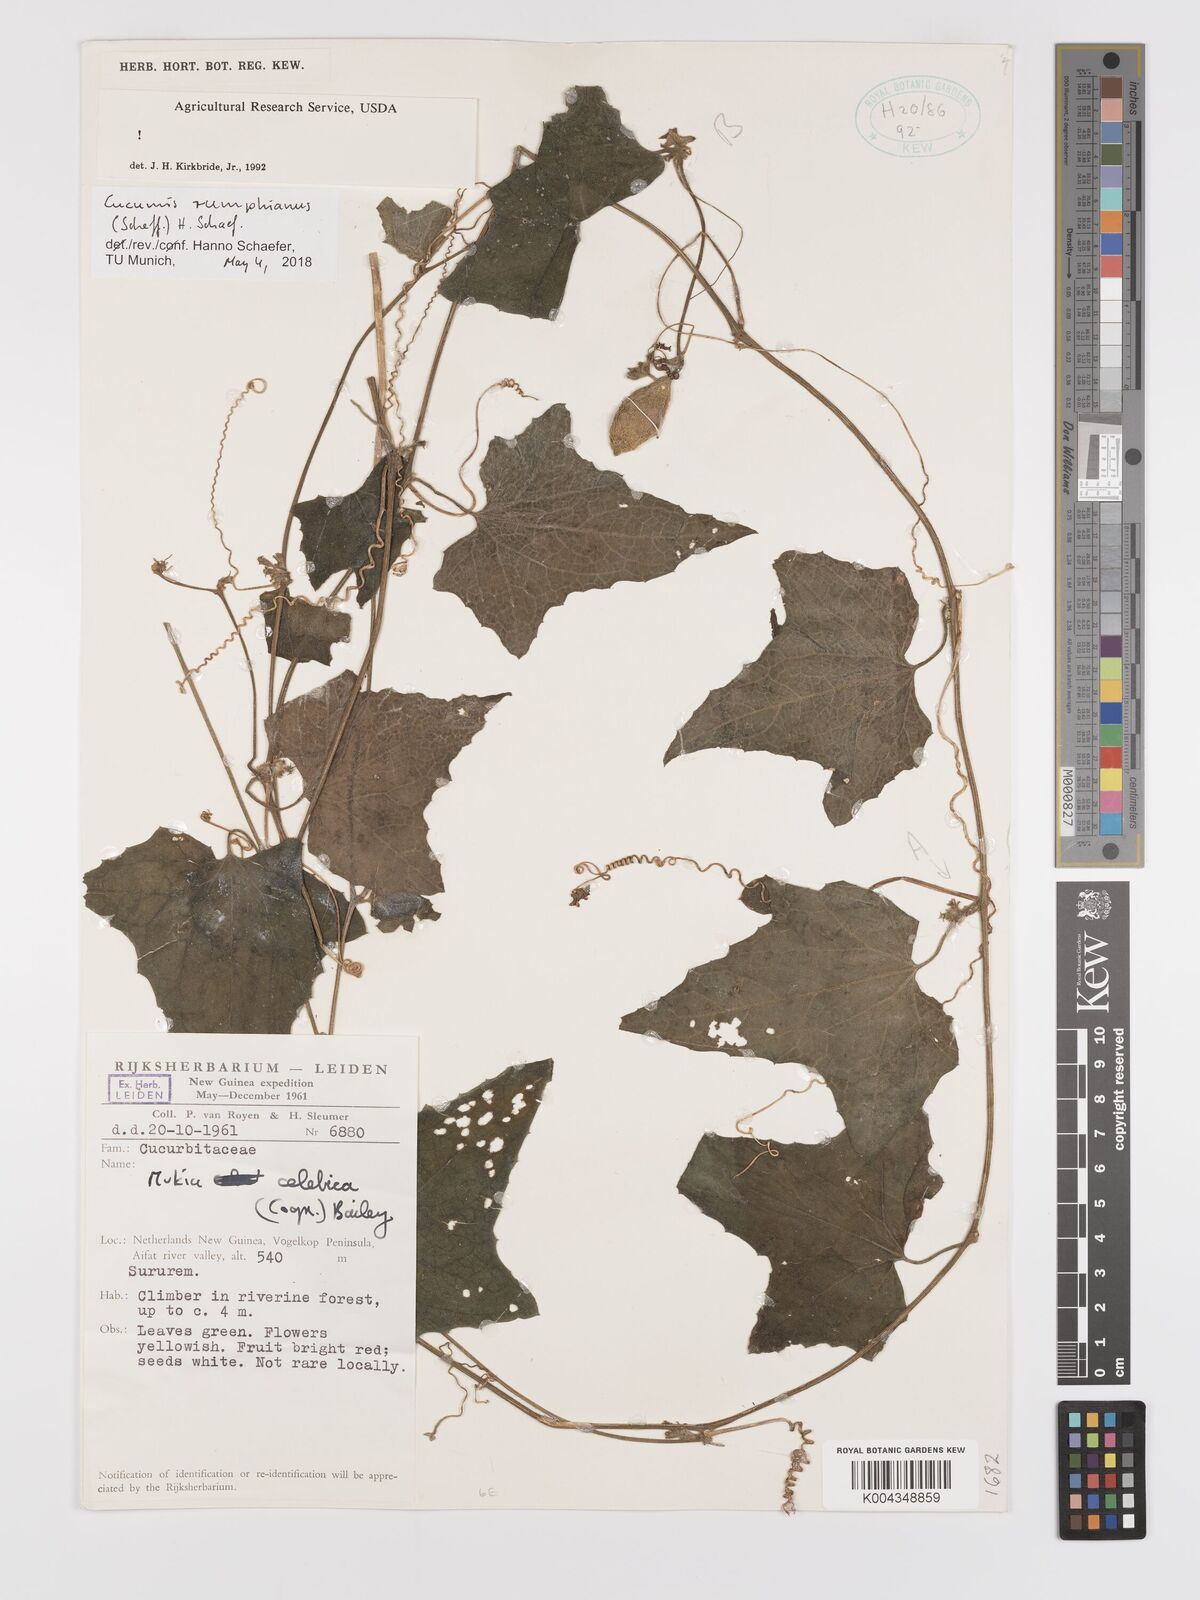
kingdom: Plantae
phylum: Tracheophyta
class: Magnoliopsida
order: Cucurbitales
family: Cucurbitaceae
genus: Cucumis
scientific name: Cucumis maderaspatanus
